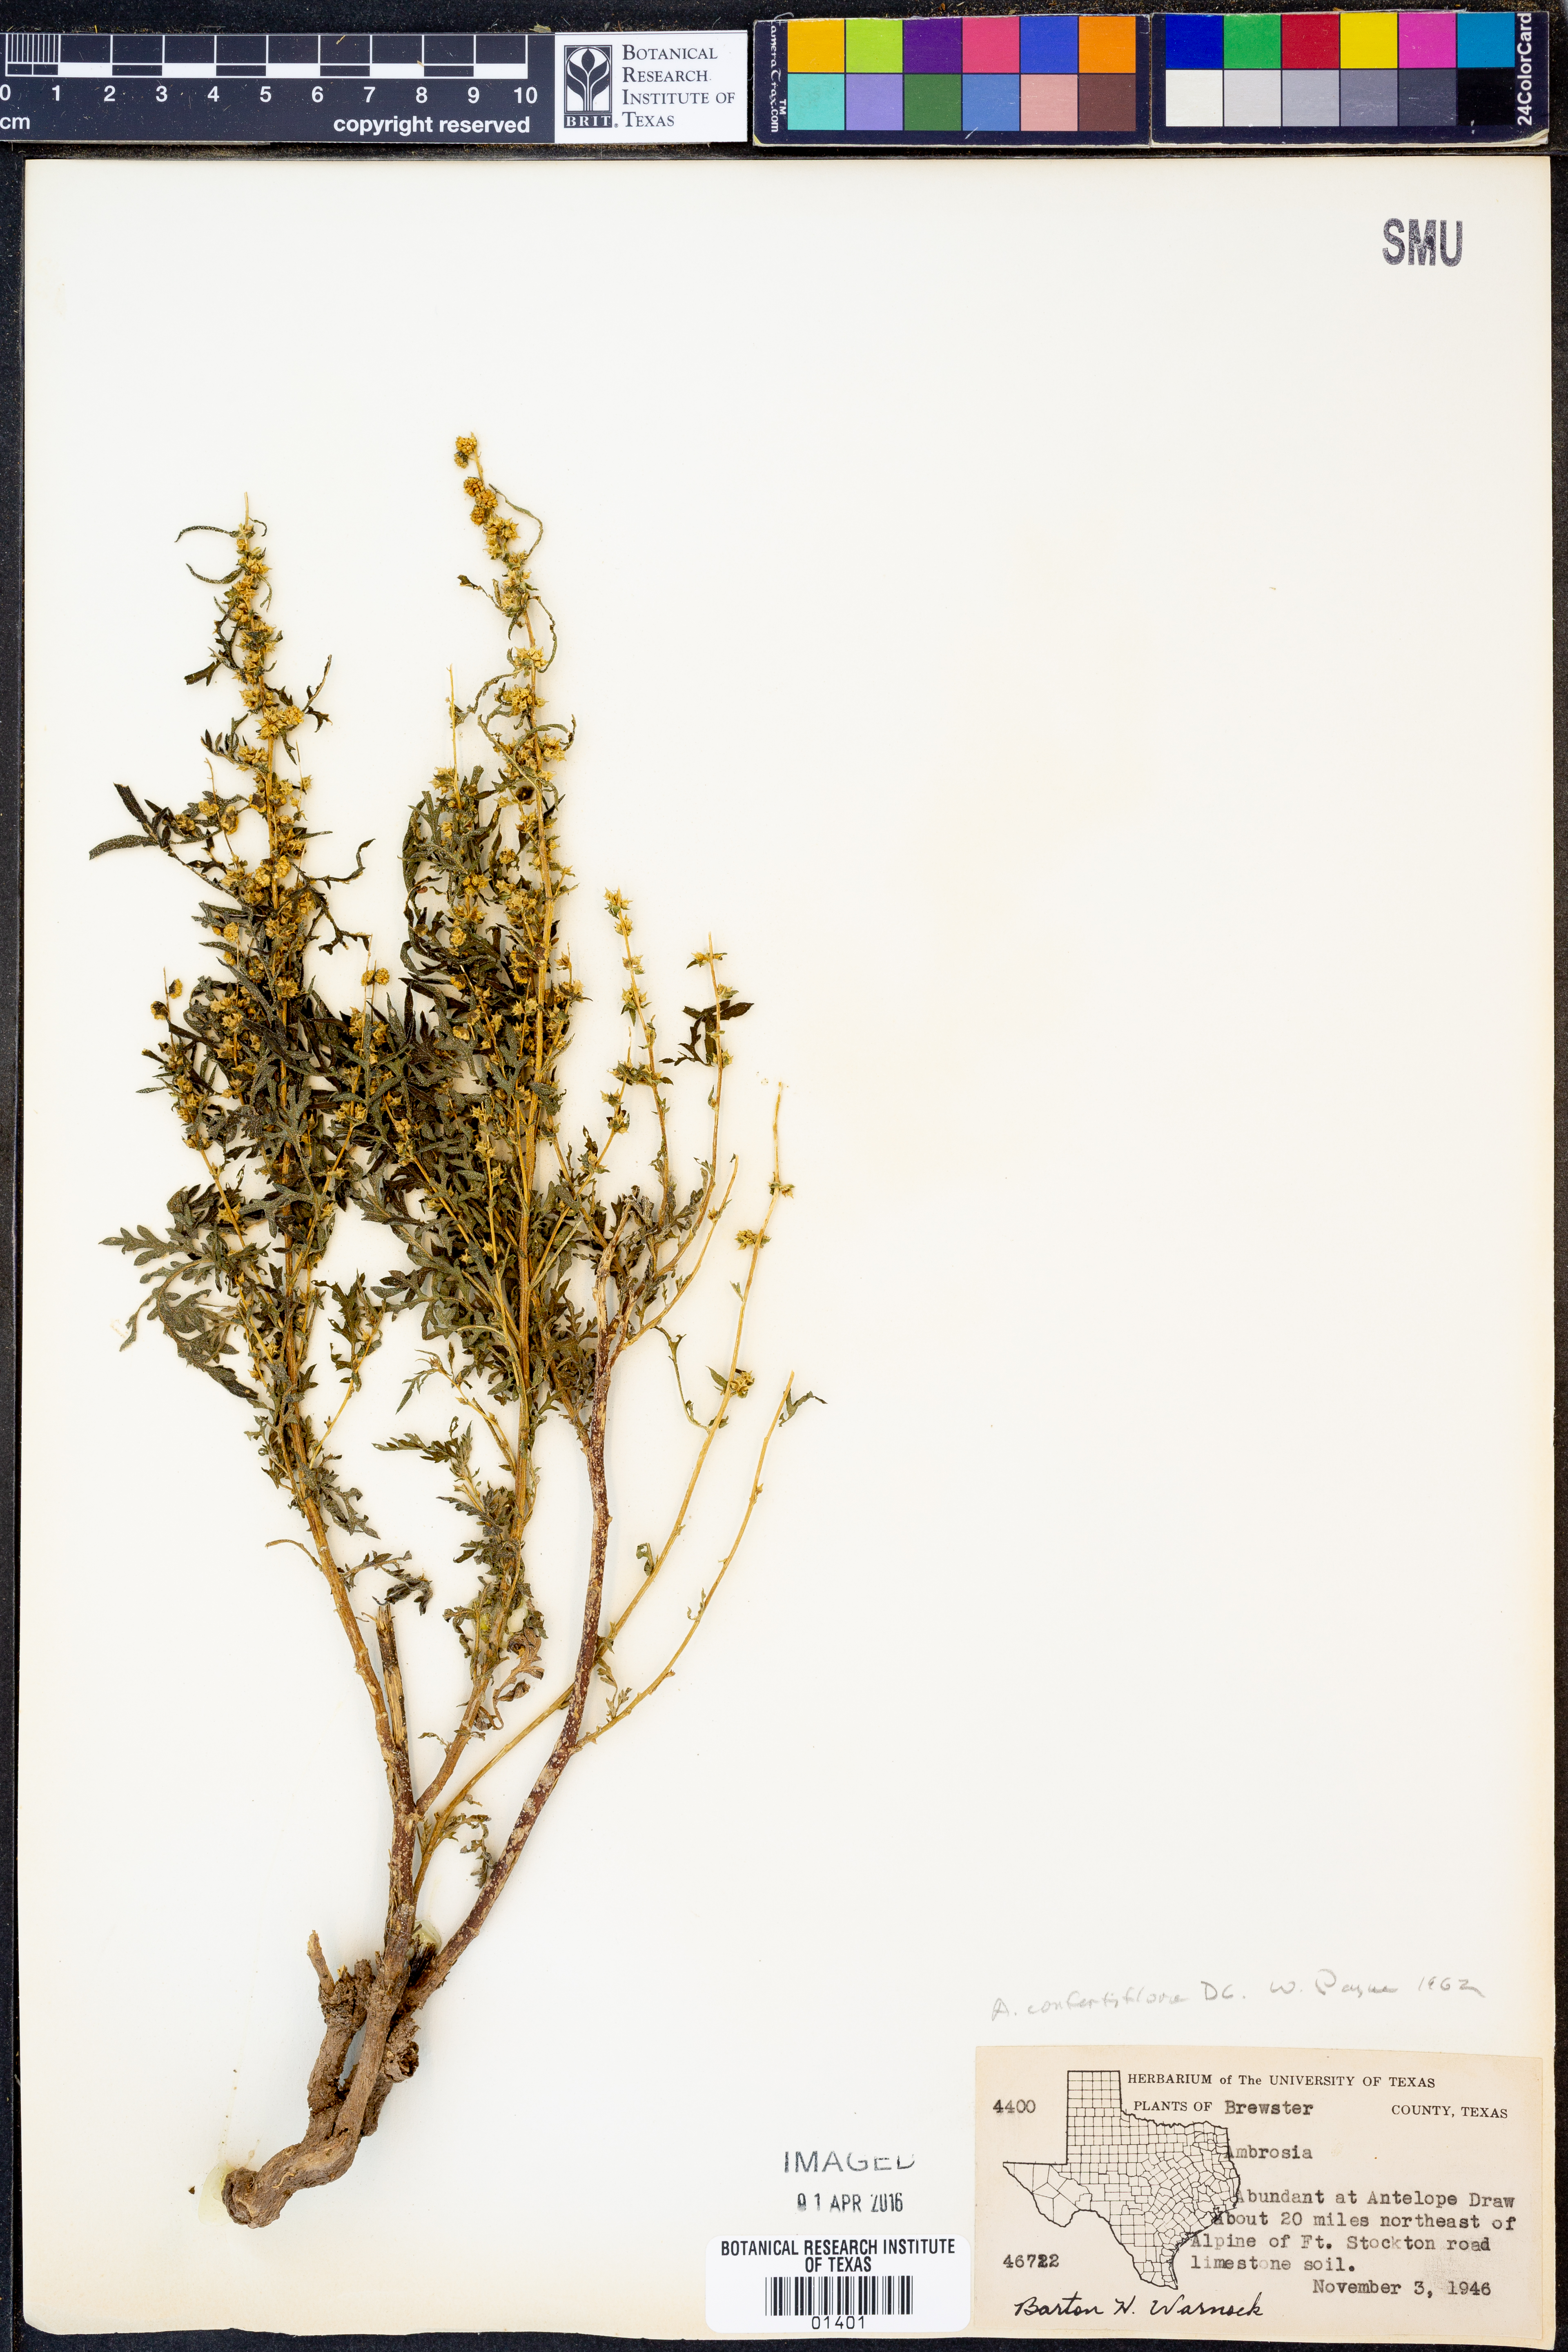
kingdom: Plantae
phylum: Tracheophyta
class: Magnoliopsida
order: Asterales
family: Asteraceae
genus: Ambrosia
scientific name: Ambrosia confertiflora
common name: Bur ragweed
